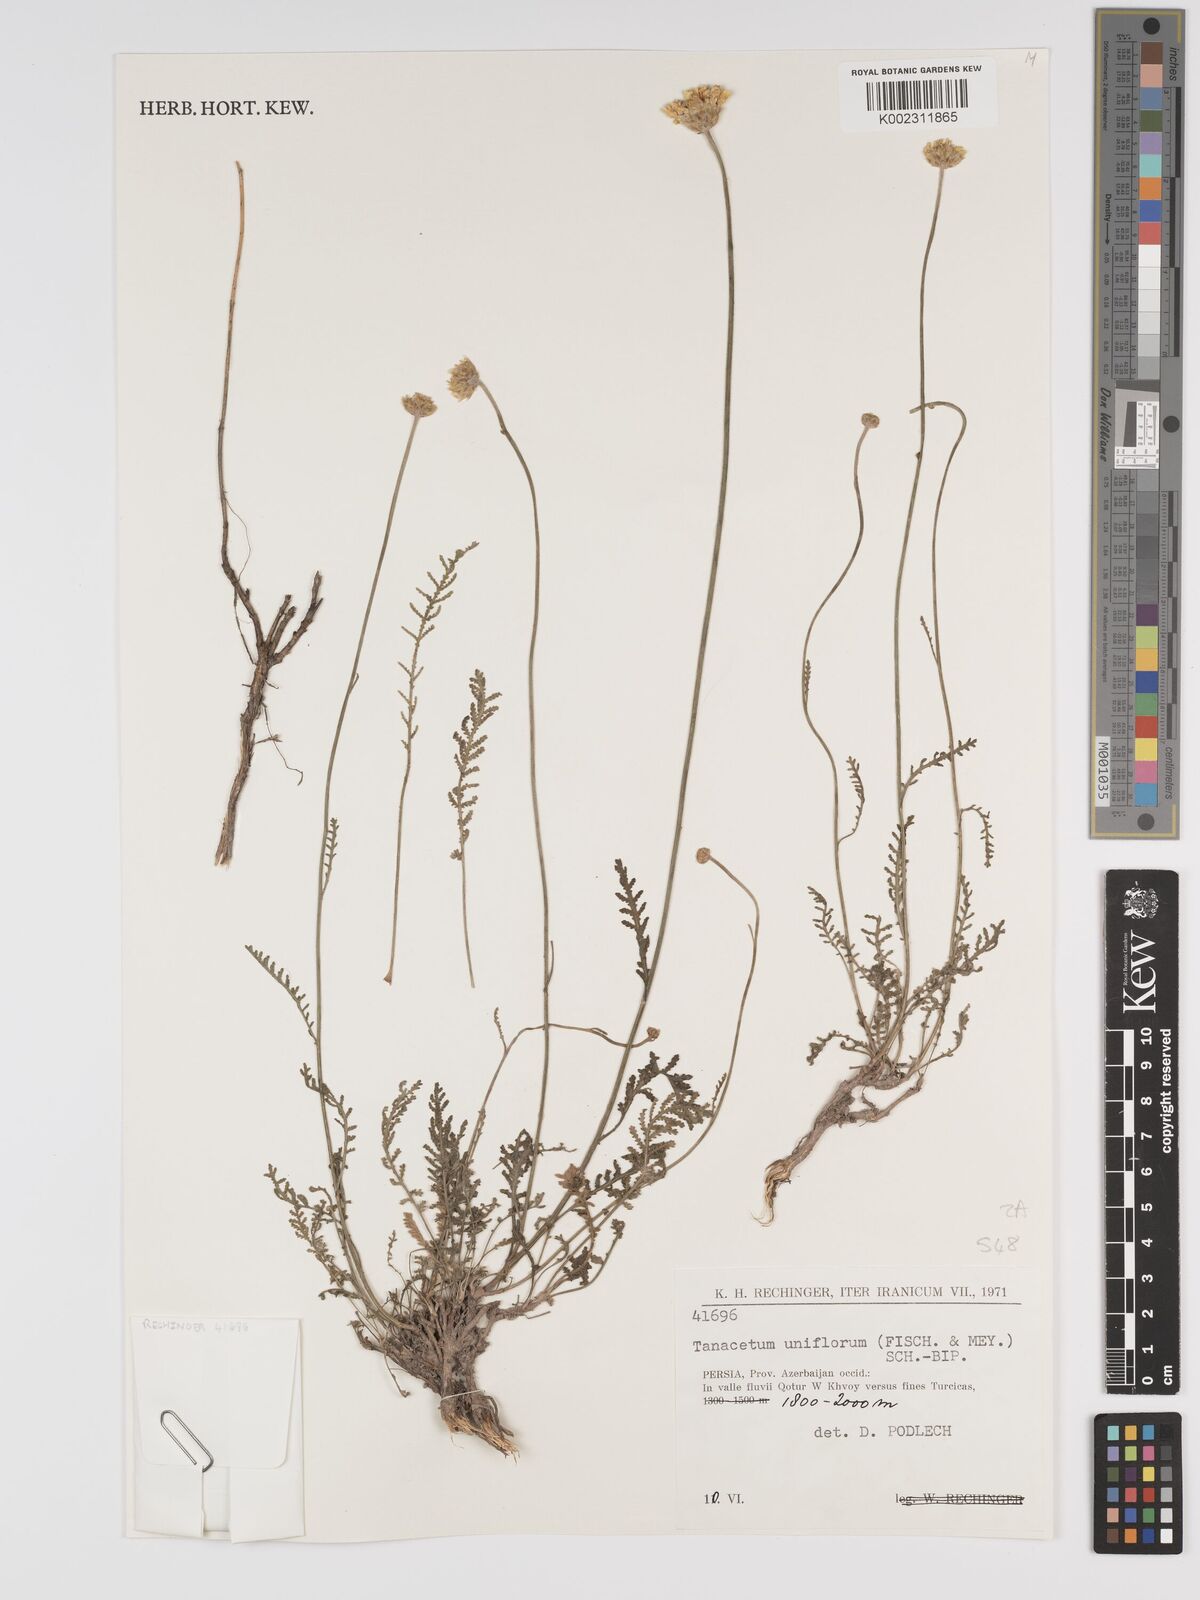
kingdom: Plantae
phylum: Tracheophyta
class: Magnoliopsida
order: Asterales
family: Asteraceae
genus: Tanacetum
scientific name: Tanacetum uniflorum
